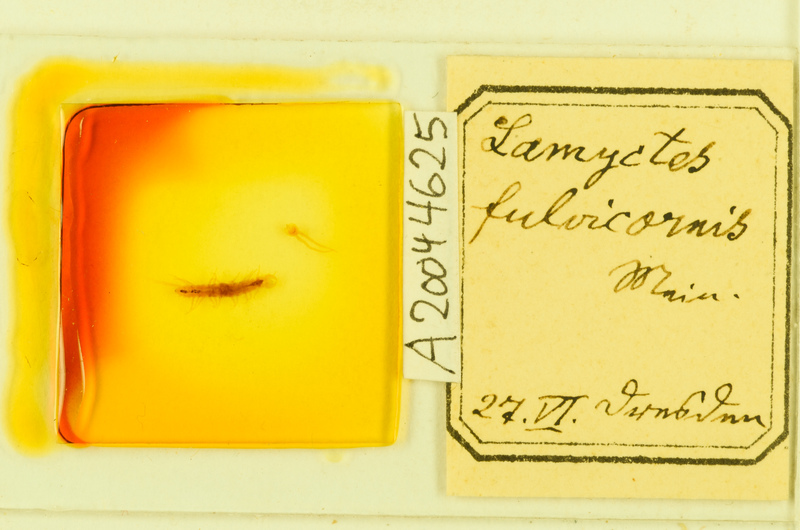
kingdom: Animalia
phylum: Arthropoda
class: Chilopoda
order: Lithobiomorpha
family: Henicopidae
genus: Lamyctes
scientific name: Lamyctes emarginatus
